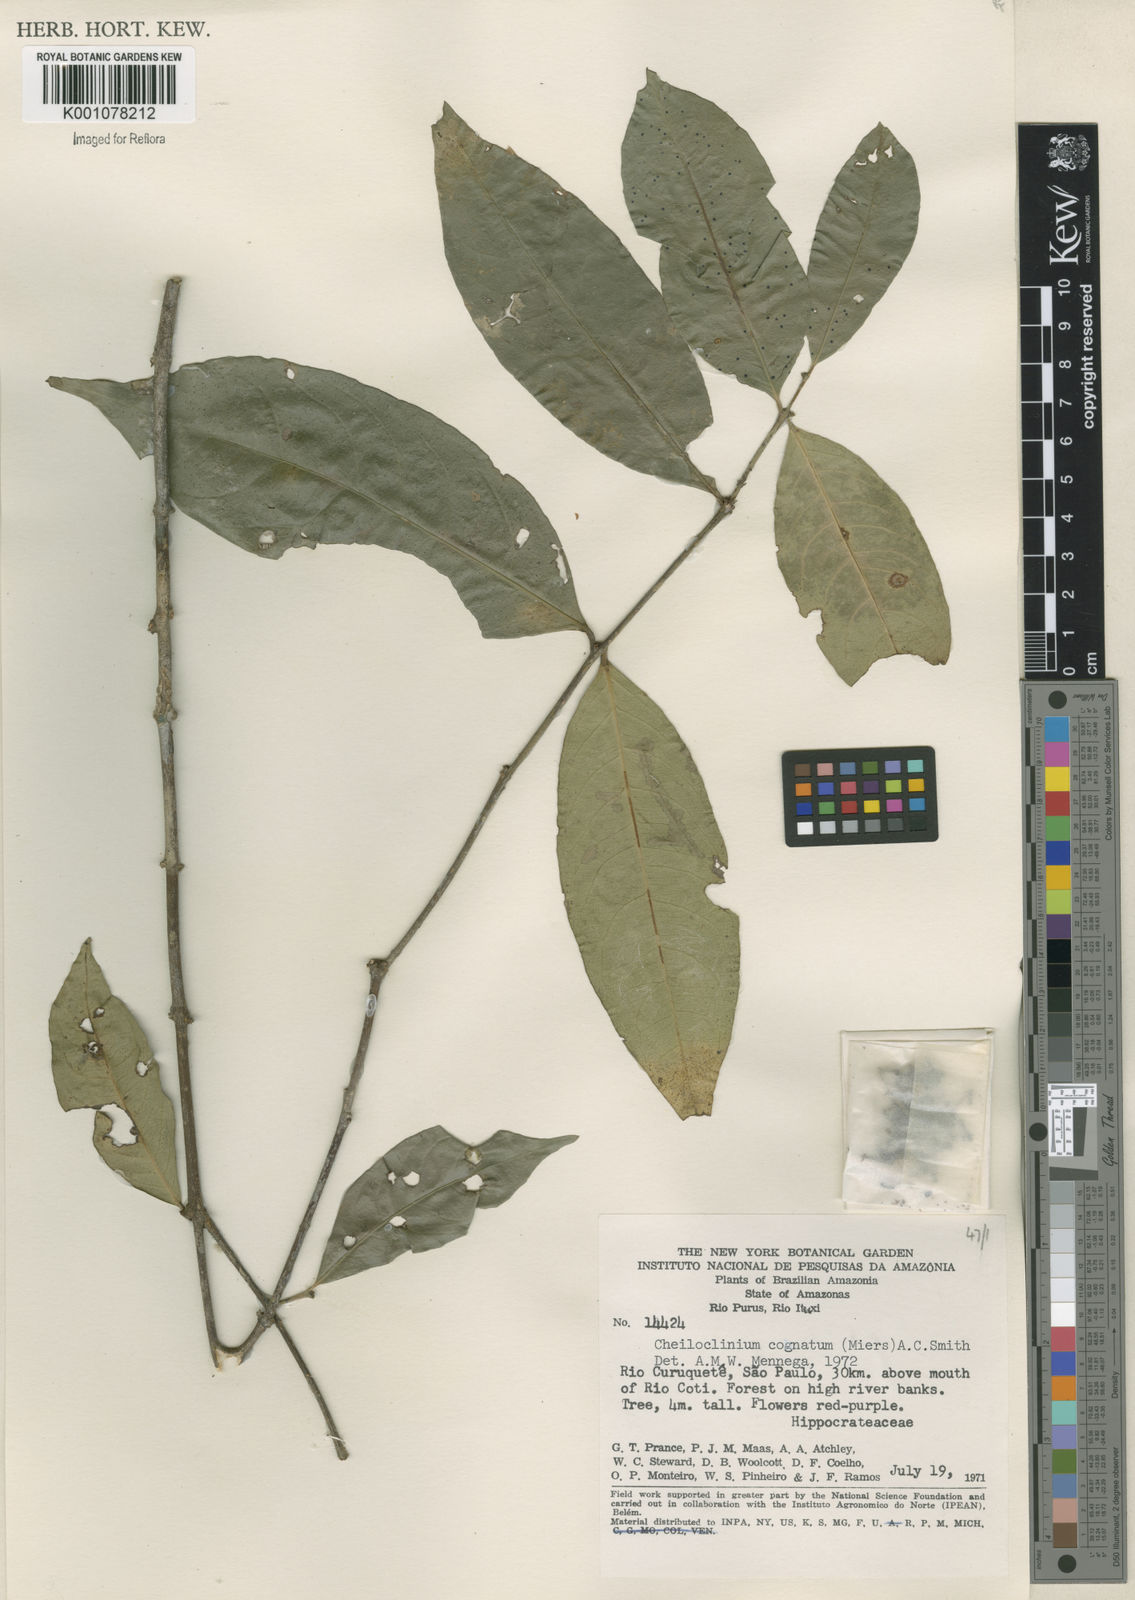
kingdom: Plantae
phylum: Tracheophyta
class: Magnoliopsida
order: Celastrales
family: Celastraceae
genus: Cheiloclinium
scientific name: Cheiloclinium cognatum
